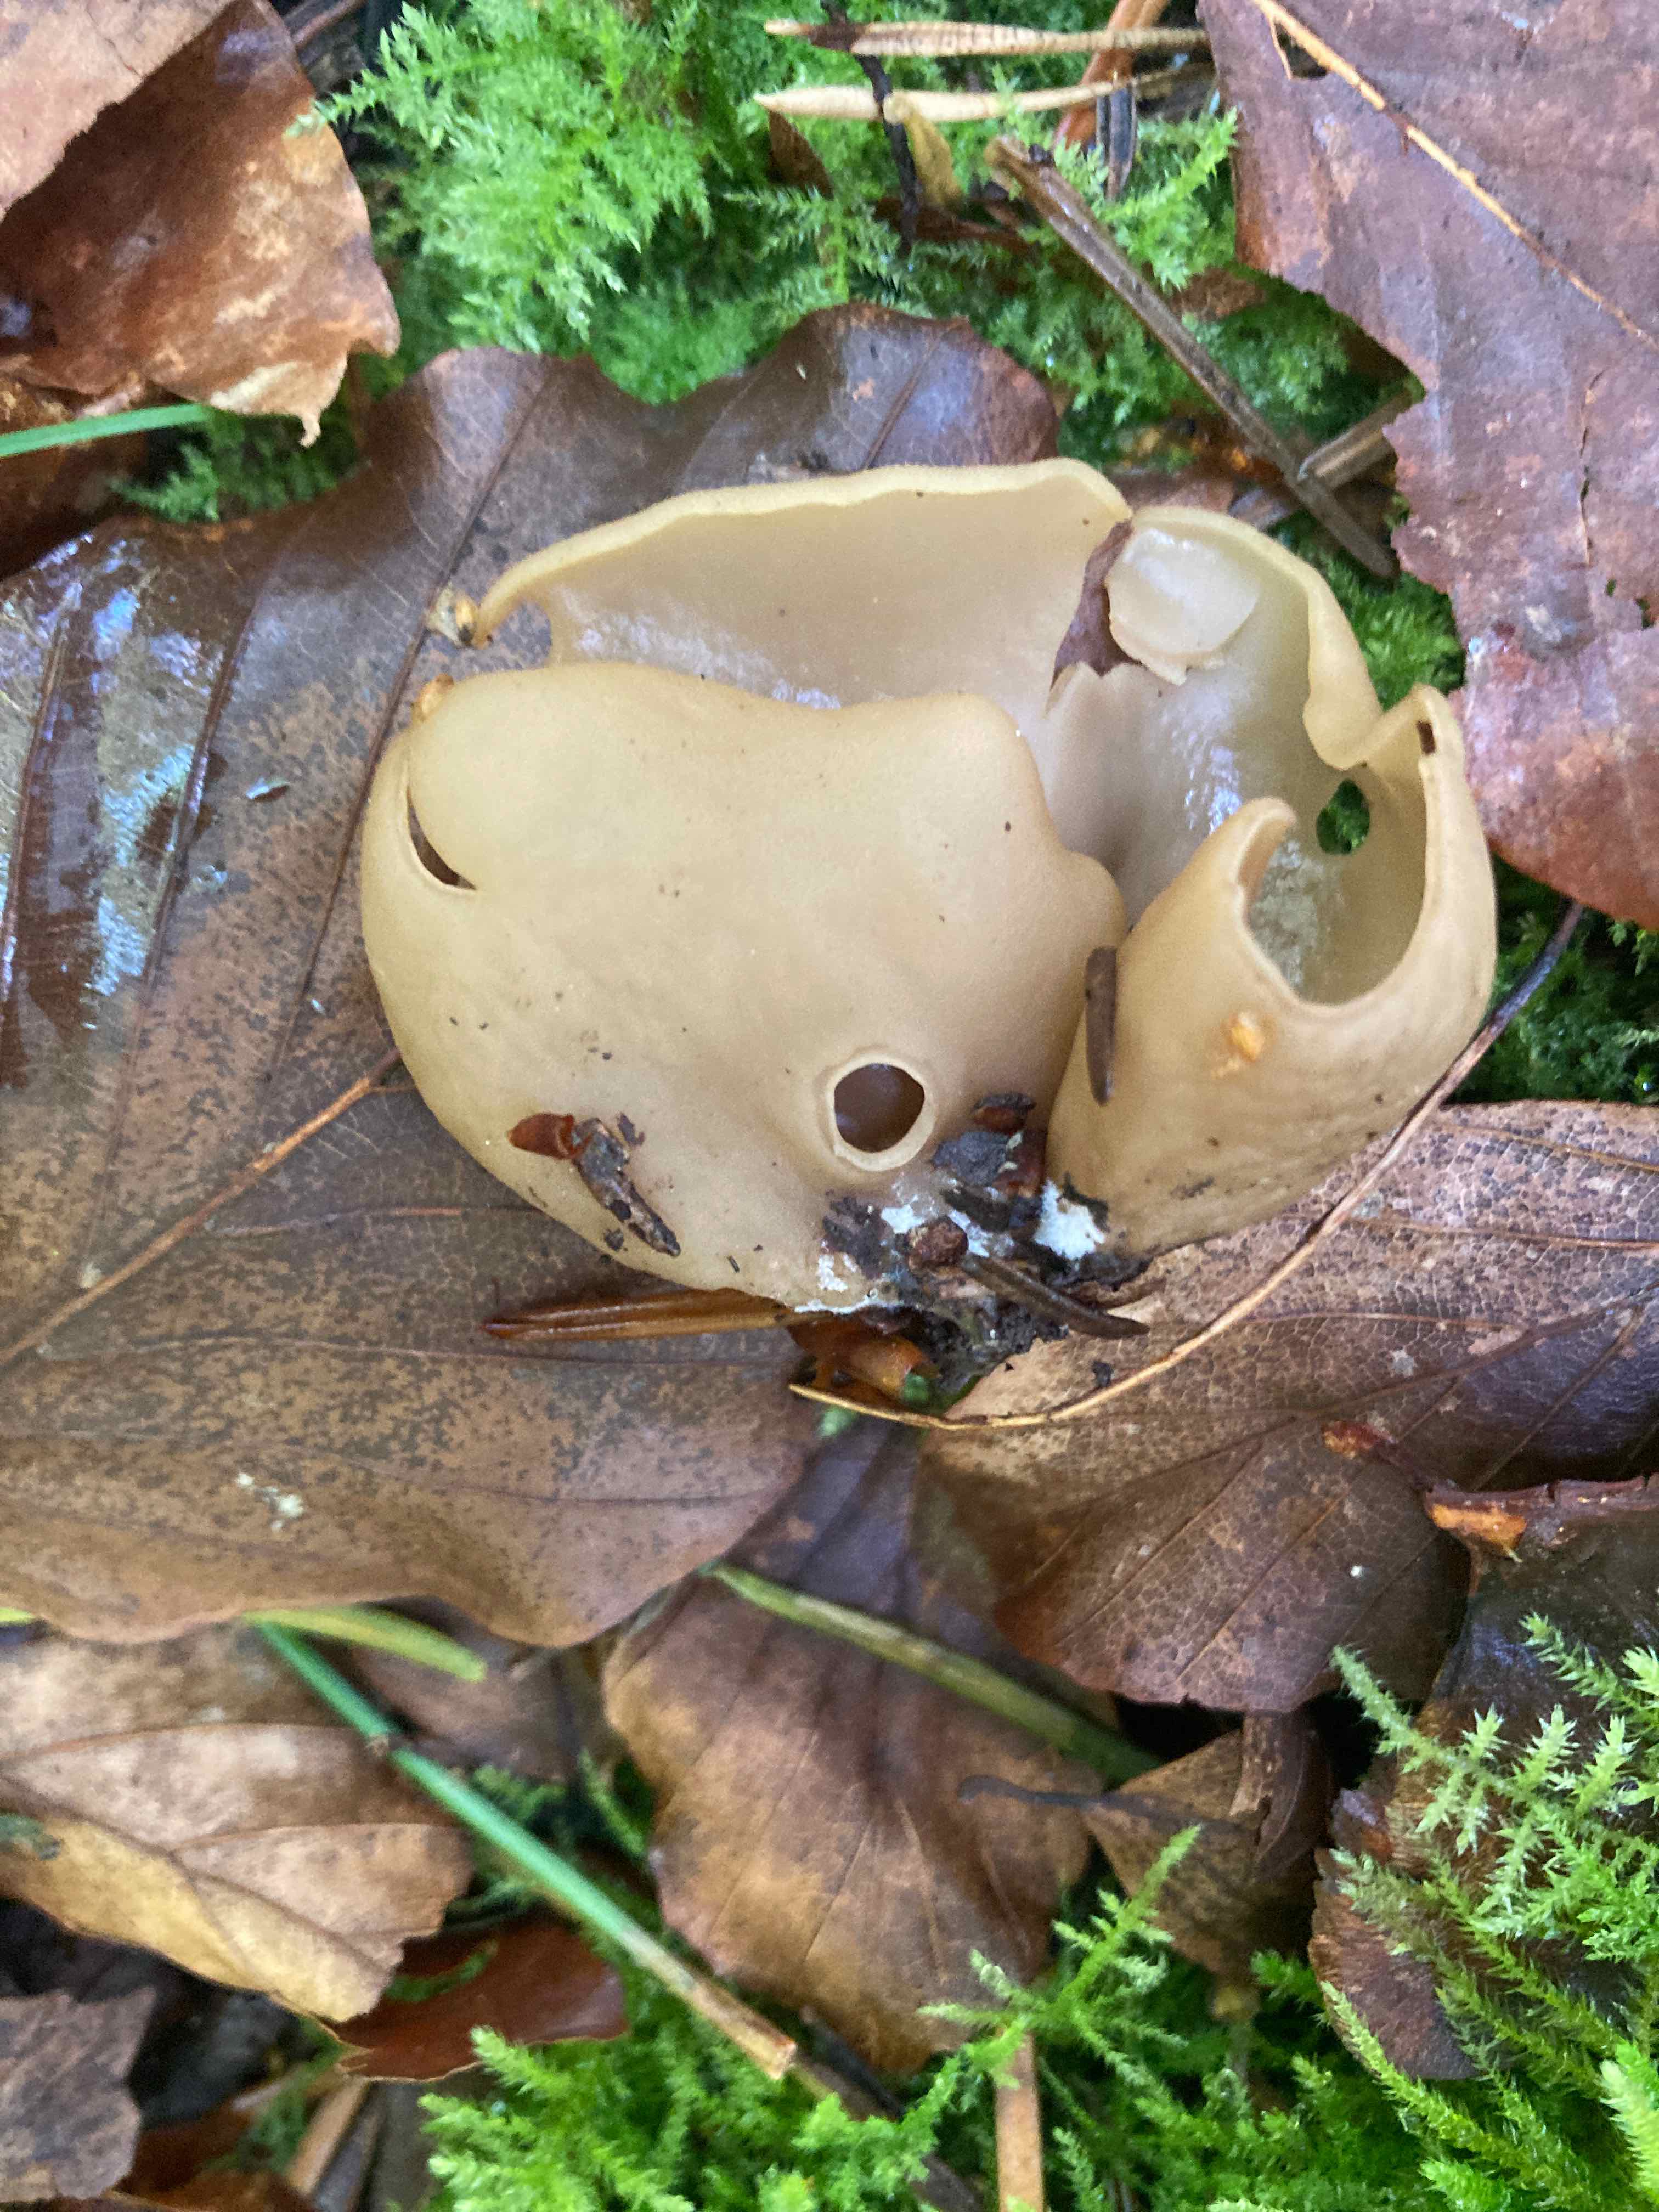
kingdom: Fungi
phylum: Ascomycota
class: Pezizomycetes
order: Pezizales
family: Otideaceae
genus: Otidea
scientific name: Otidea alutacea
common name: læder-ørebæger
